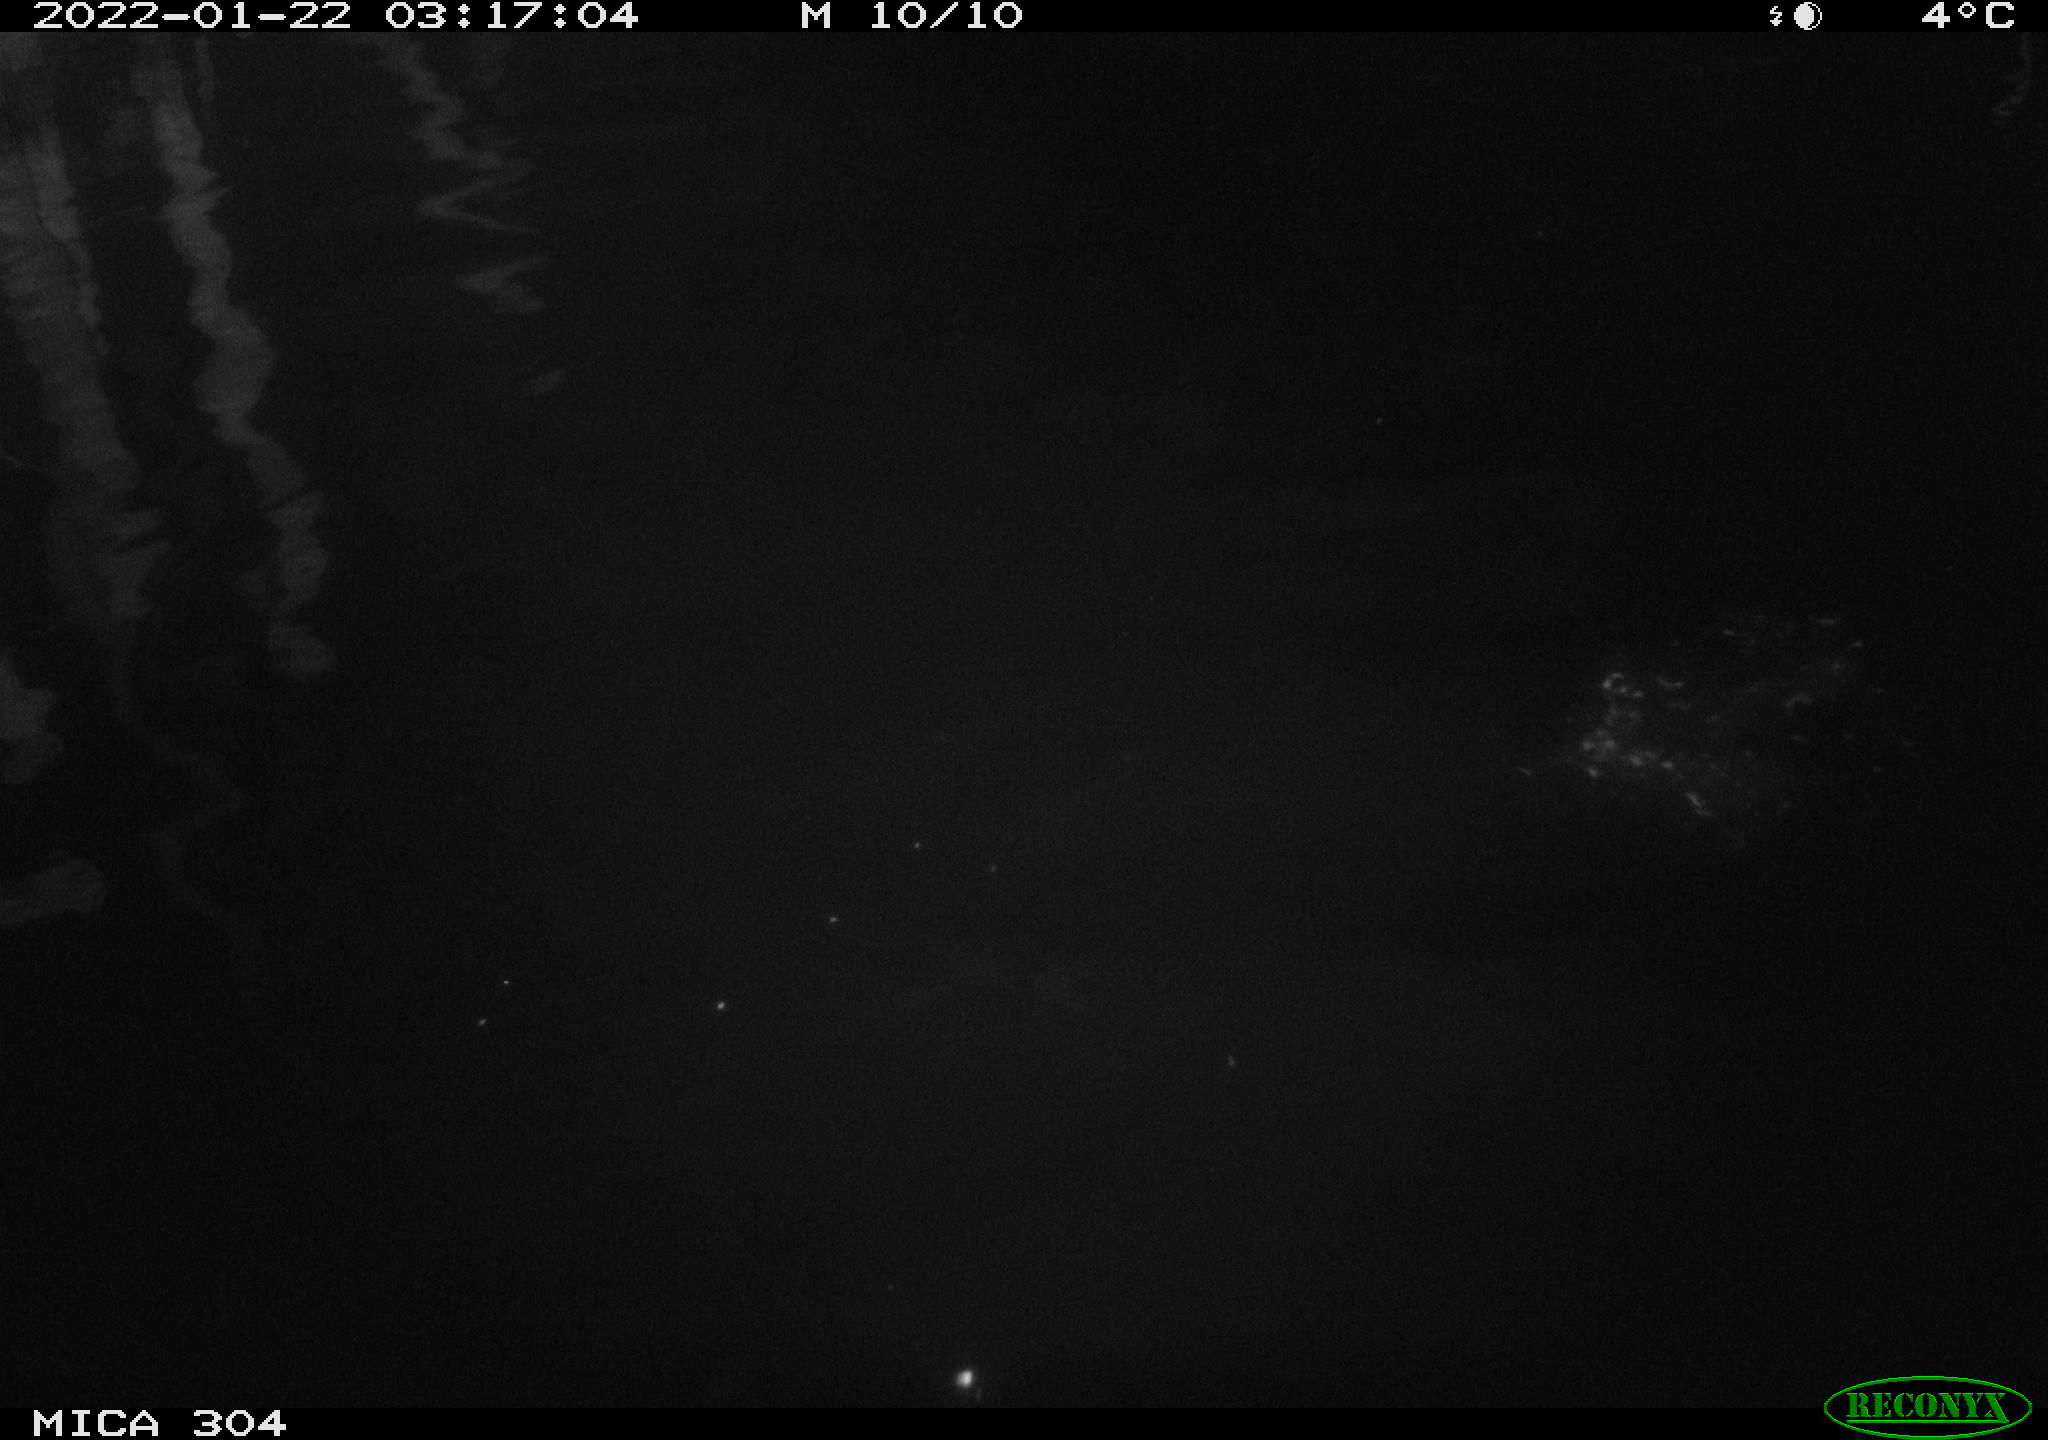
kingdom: Animalia
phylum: Chordata
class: Aves
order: Anseriformes
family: Anatidae
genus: Anas
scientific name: Anas platyrhynchos
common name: Mallard
